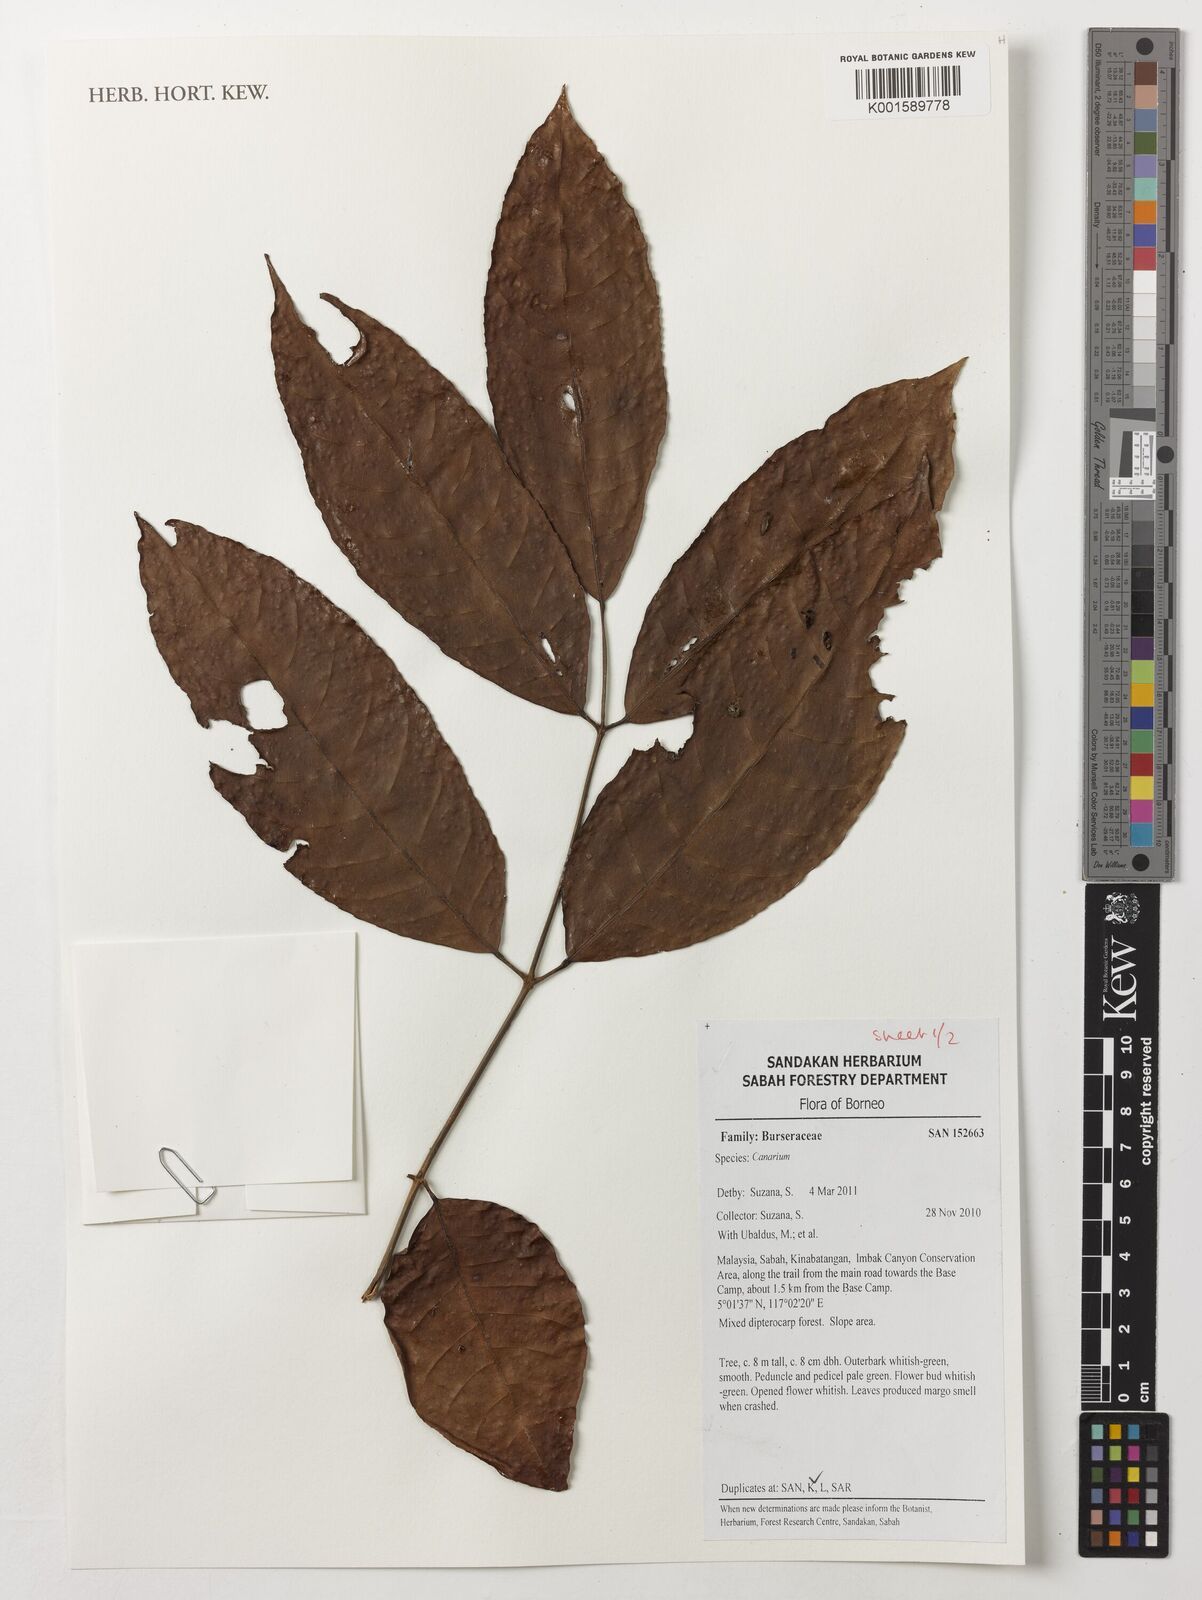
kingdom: Plantae
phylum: Tracheophyta
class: Magnoliopsida
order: Sapindales
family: Burseraceae
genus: Canarium
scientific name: Canarium
